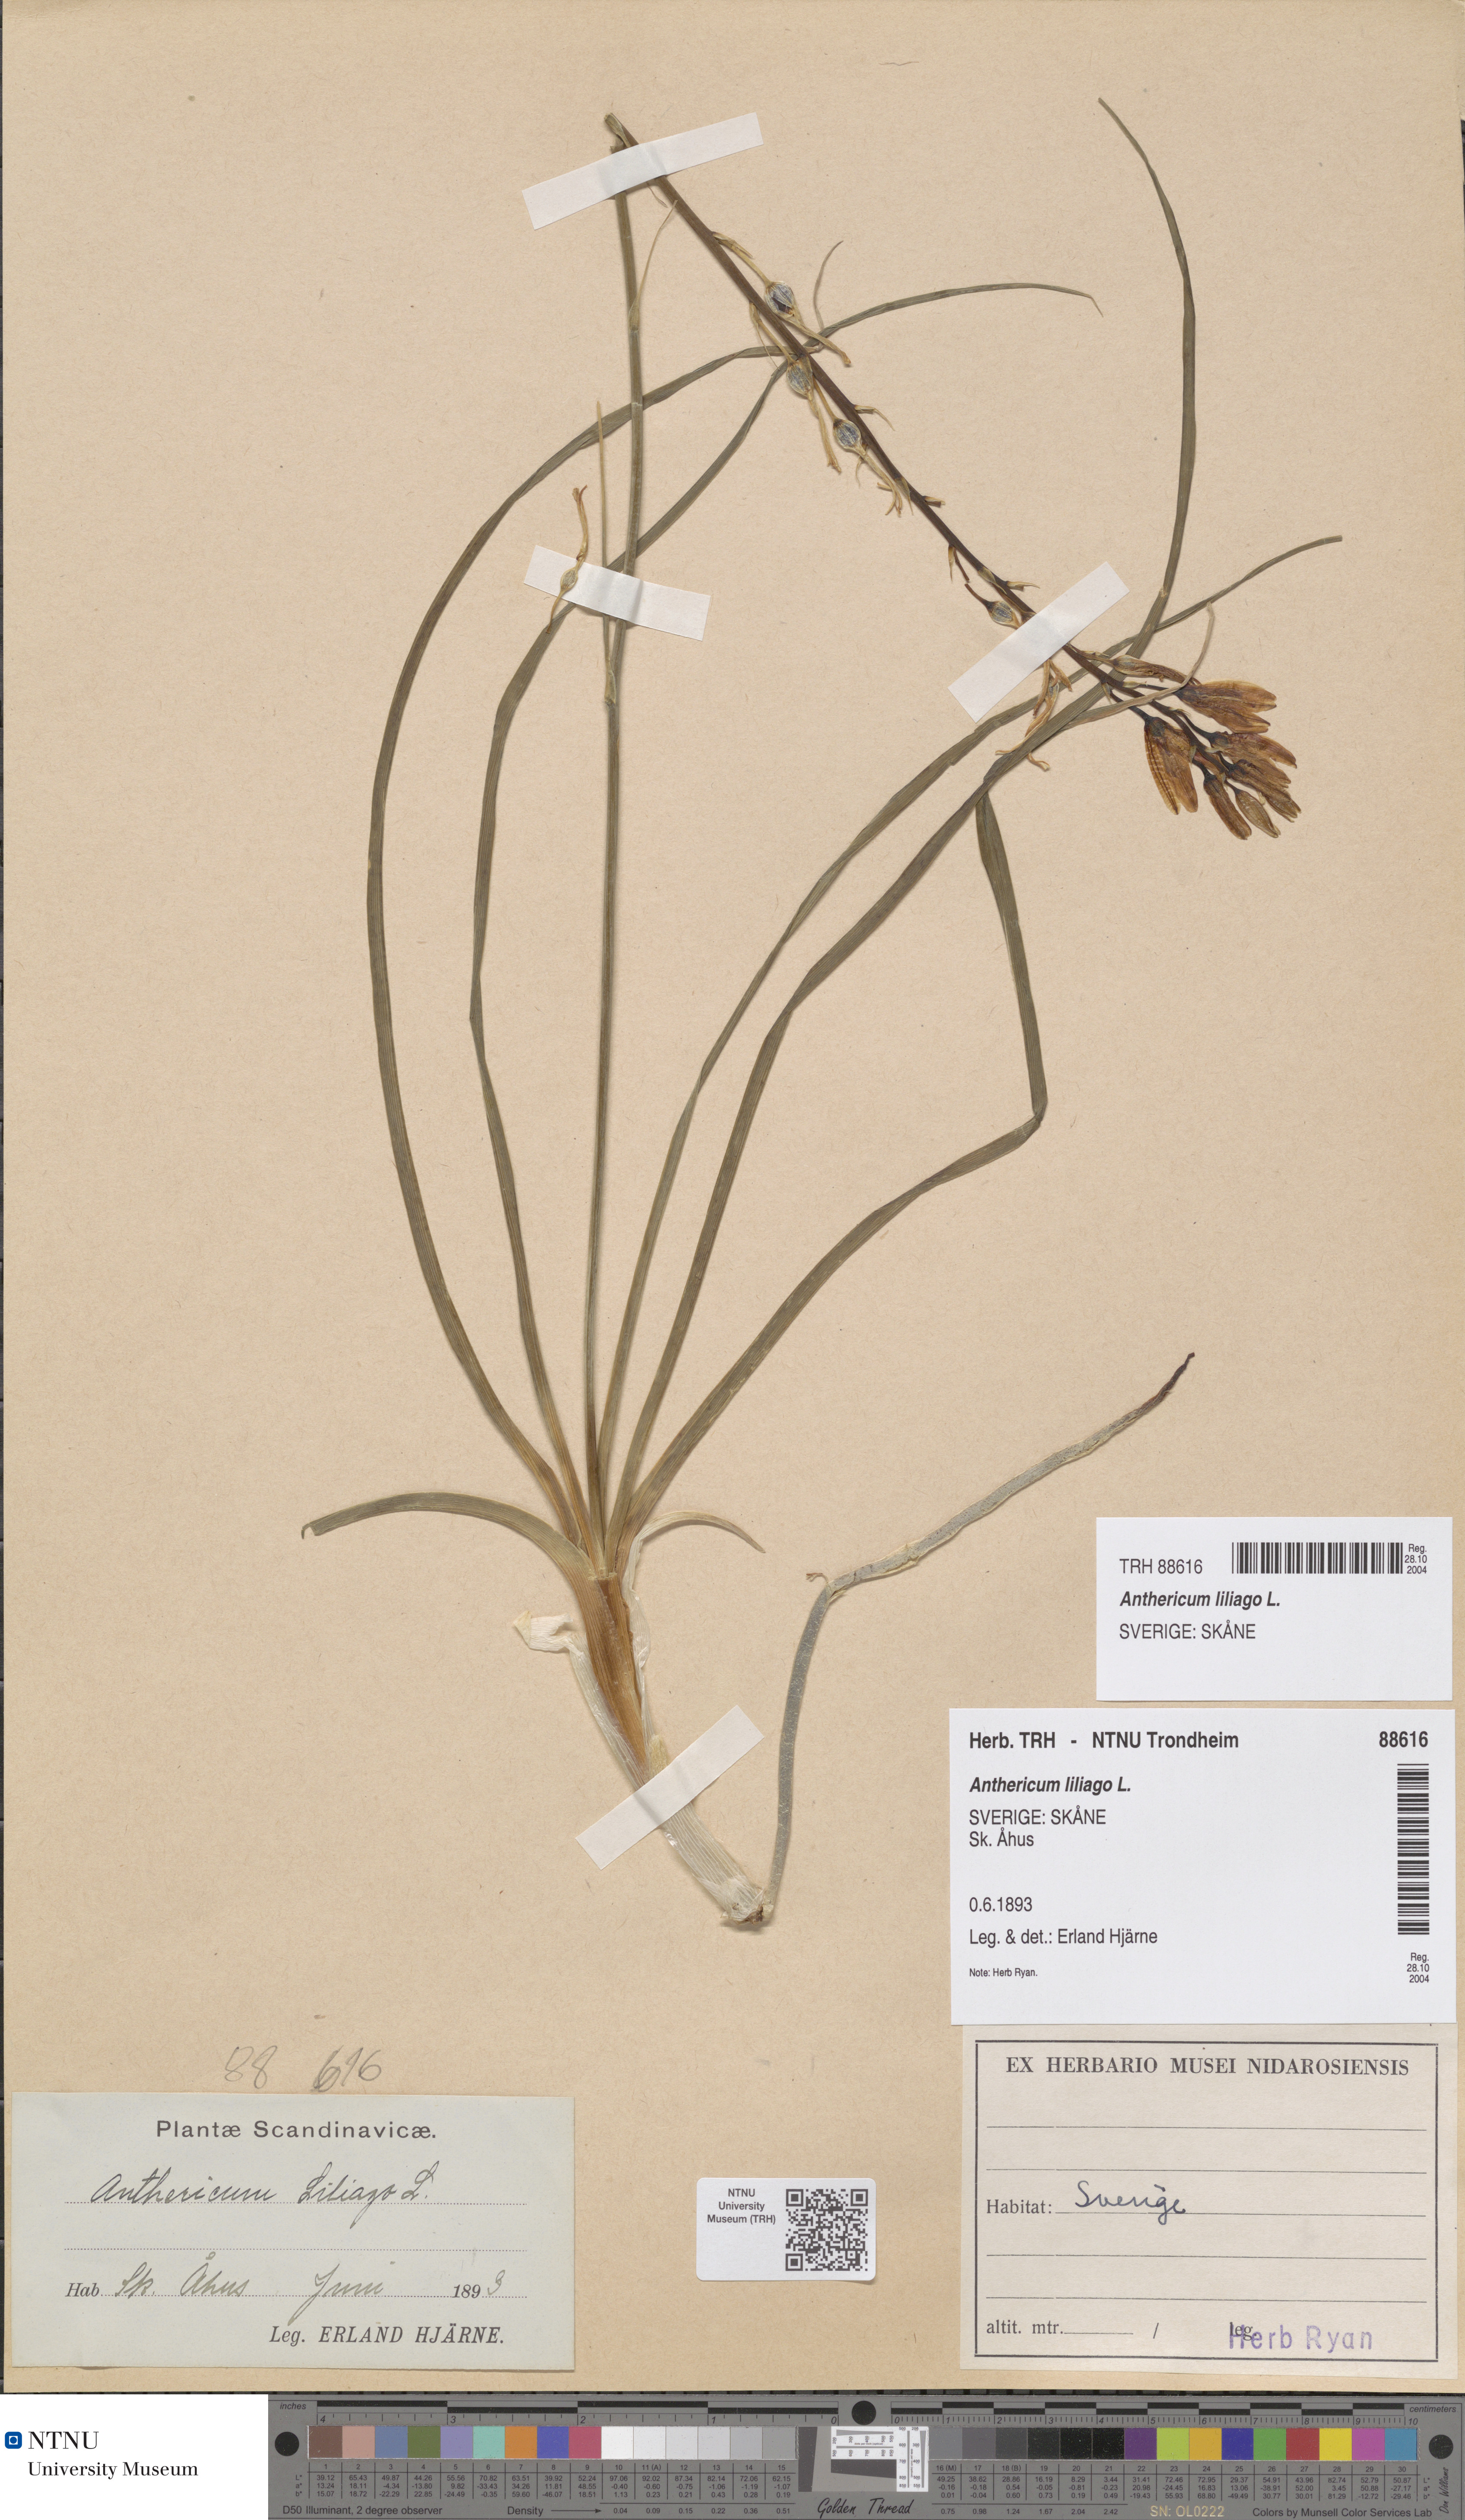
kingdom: Plantae
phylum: Tracheophyta
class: Liliopsida
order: Asparagales
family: Asparagaceae
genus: Anthericum
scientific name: Anthericum liliago
